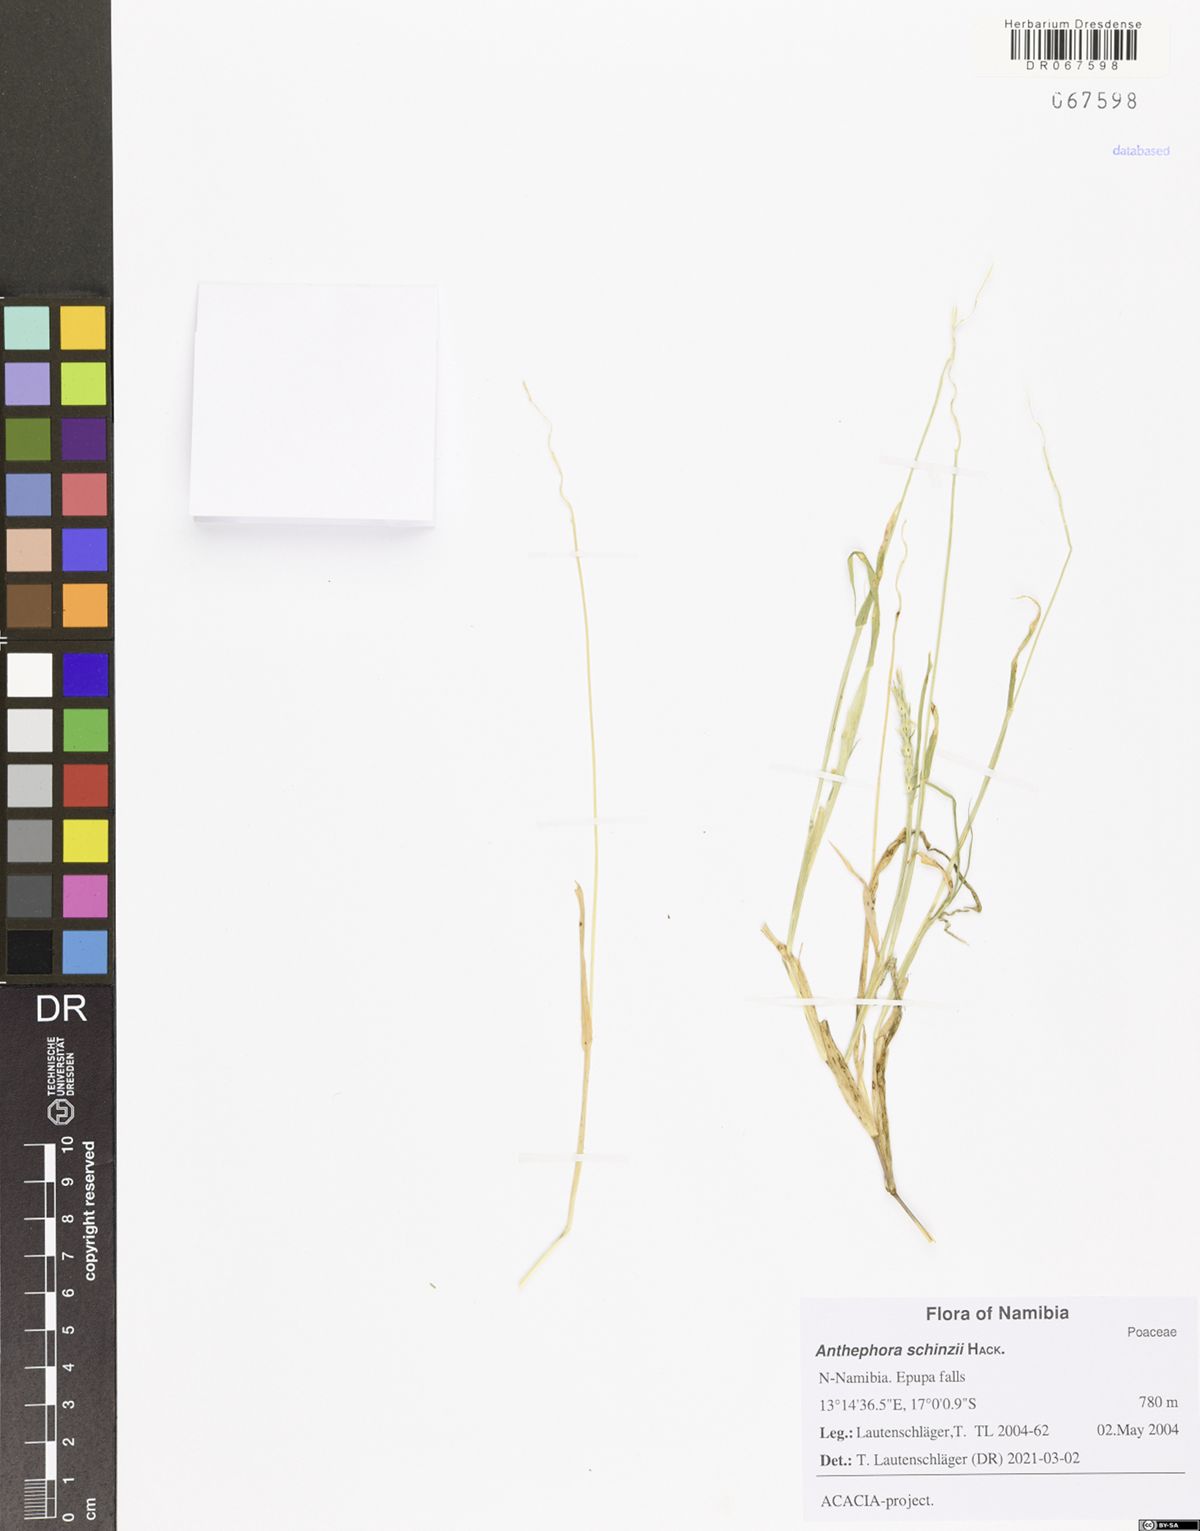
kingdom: Plantae
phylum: Tracheophyta
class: Liliopsida
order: Poales
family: Poaceae
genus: Anthephora
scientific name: Anthephora schinzii
